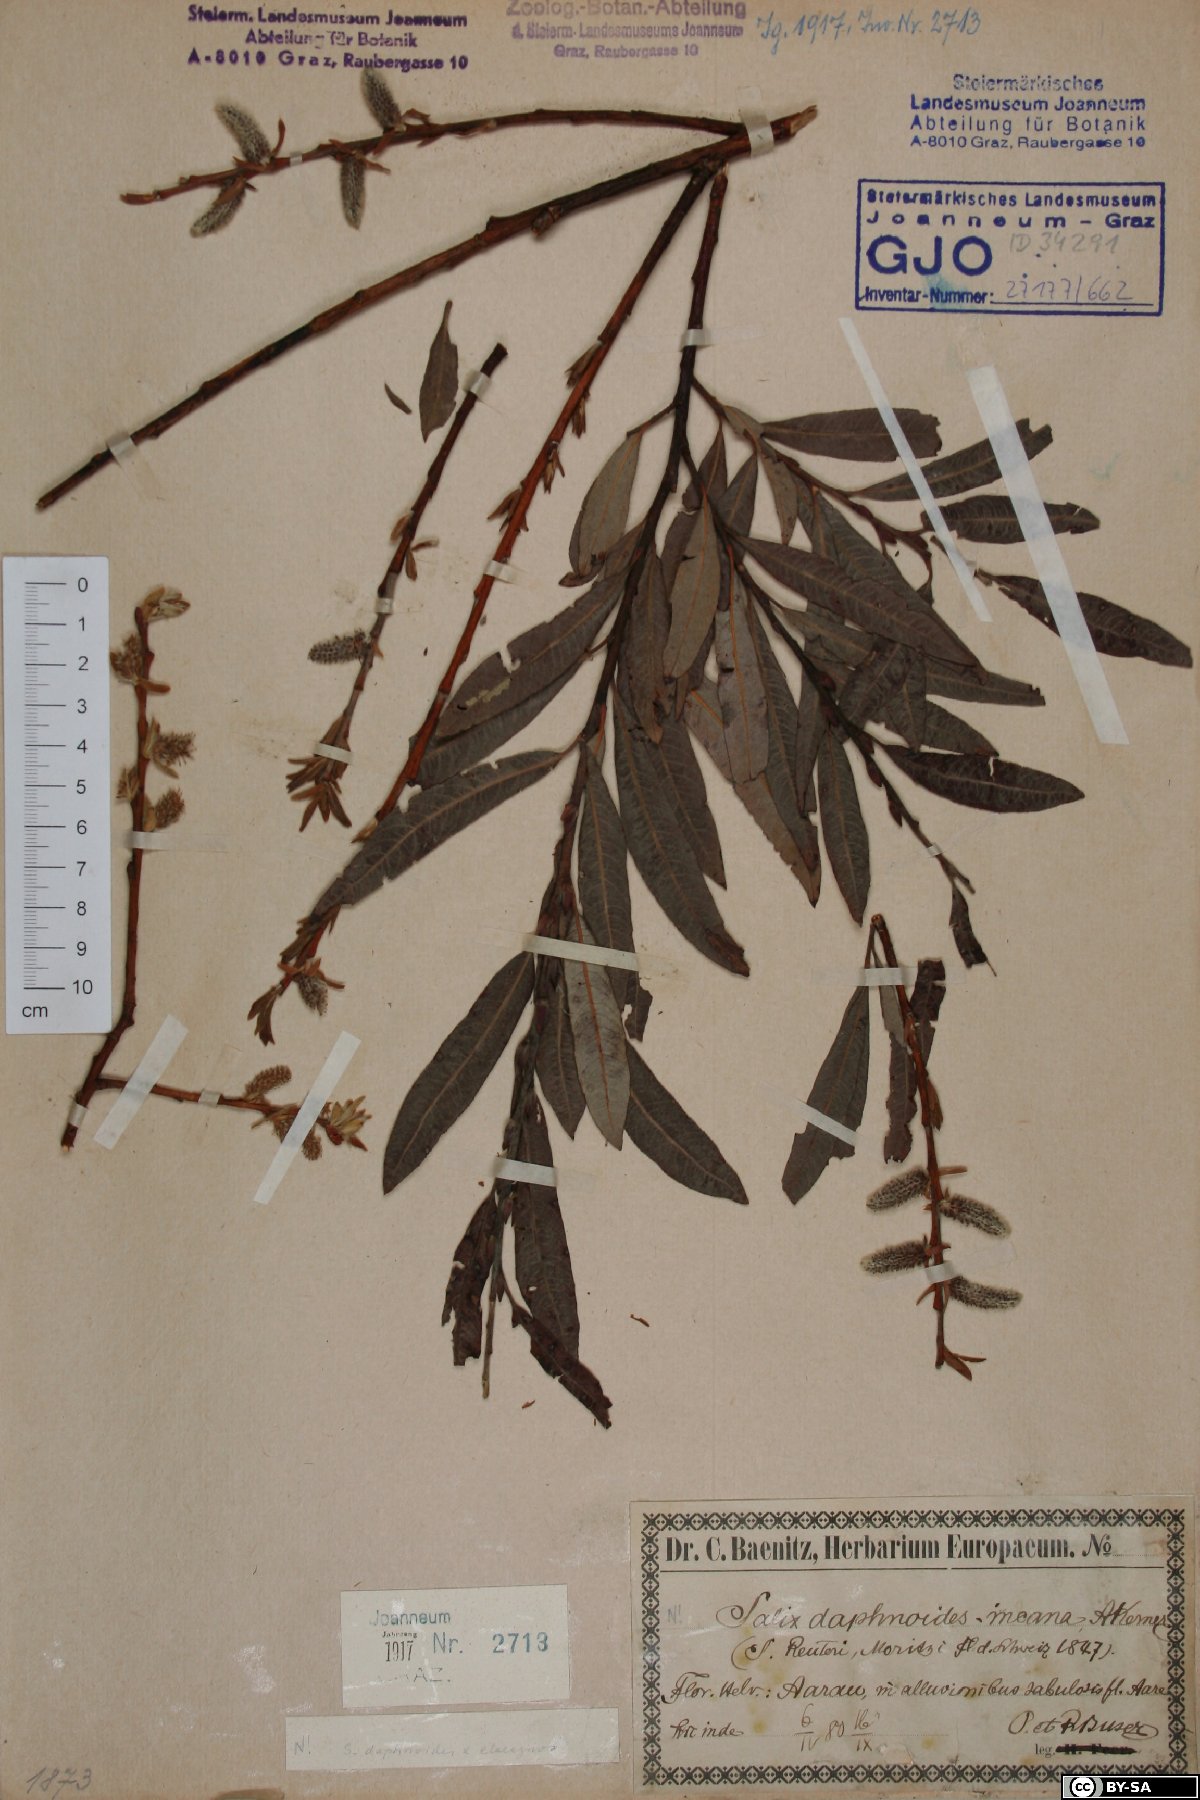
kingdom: Plantae
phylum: Tracheophyta
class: Magnoliopsida
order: Malpighiales
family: Salicaceae
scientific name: Salicaceae
